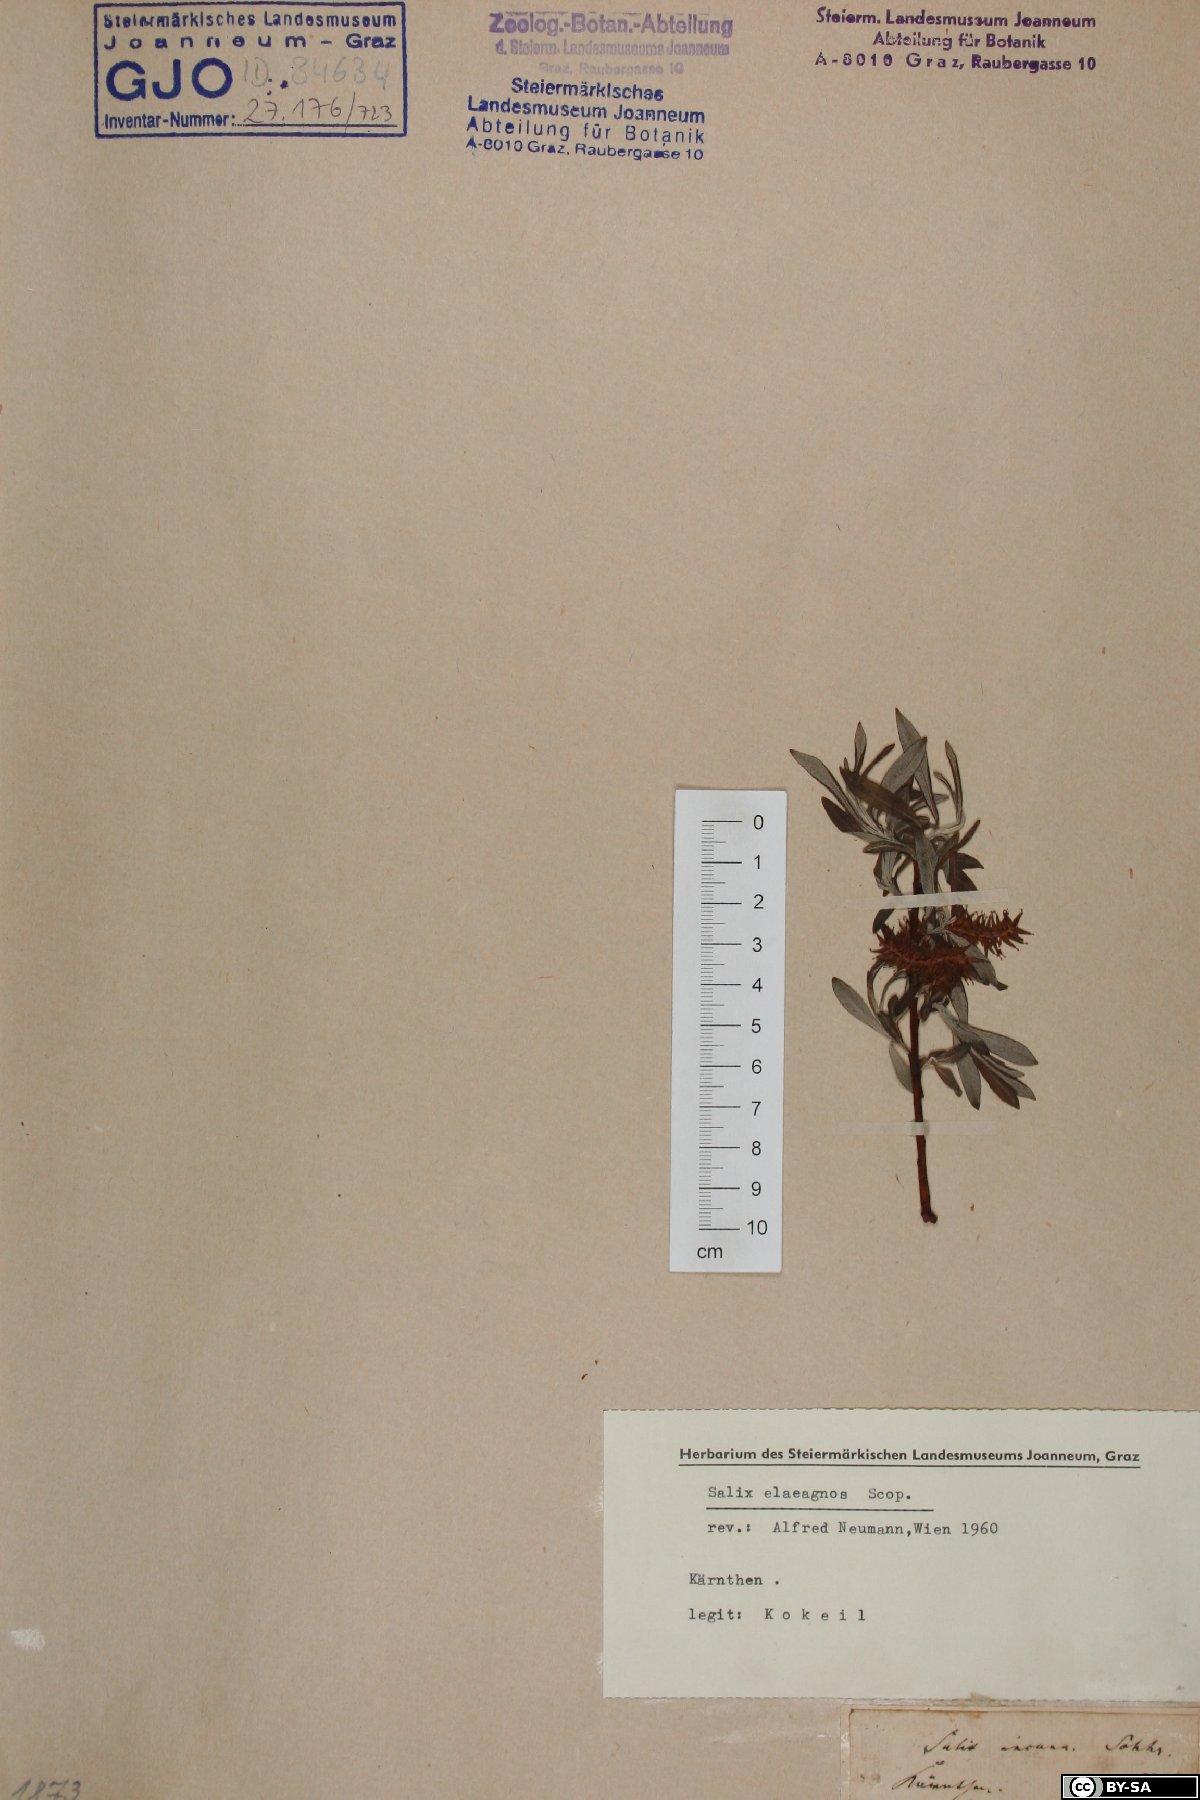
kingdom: Plantae
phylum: Tracheophyta
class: Magnoliopsida
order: Malpighiales
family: Salicaceae
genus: Salix
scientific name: Salix eleagnos
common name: Elaeagnus willow
